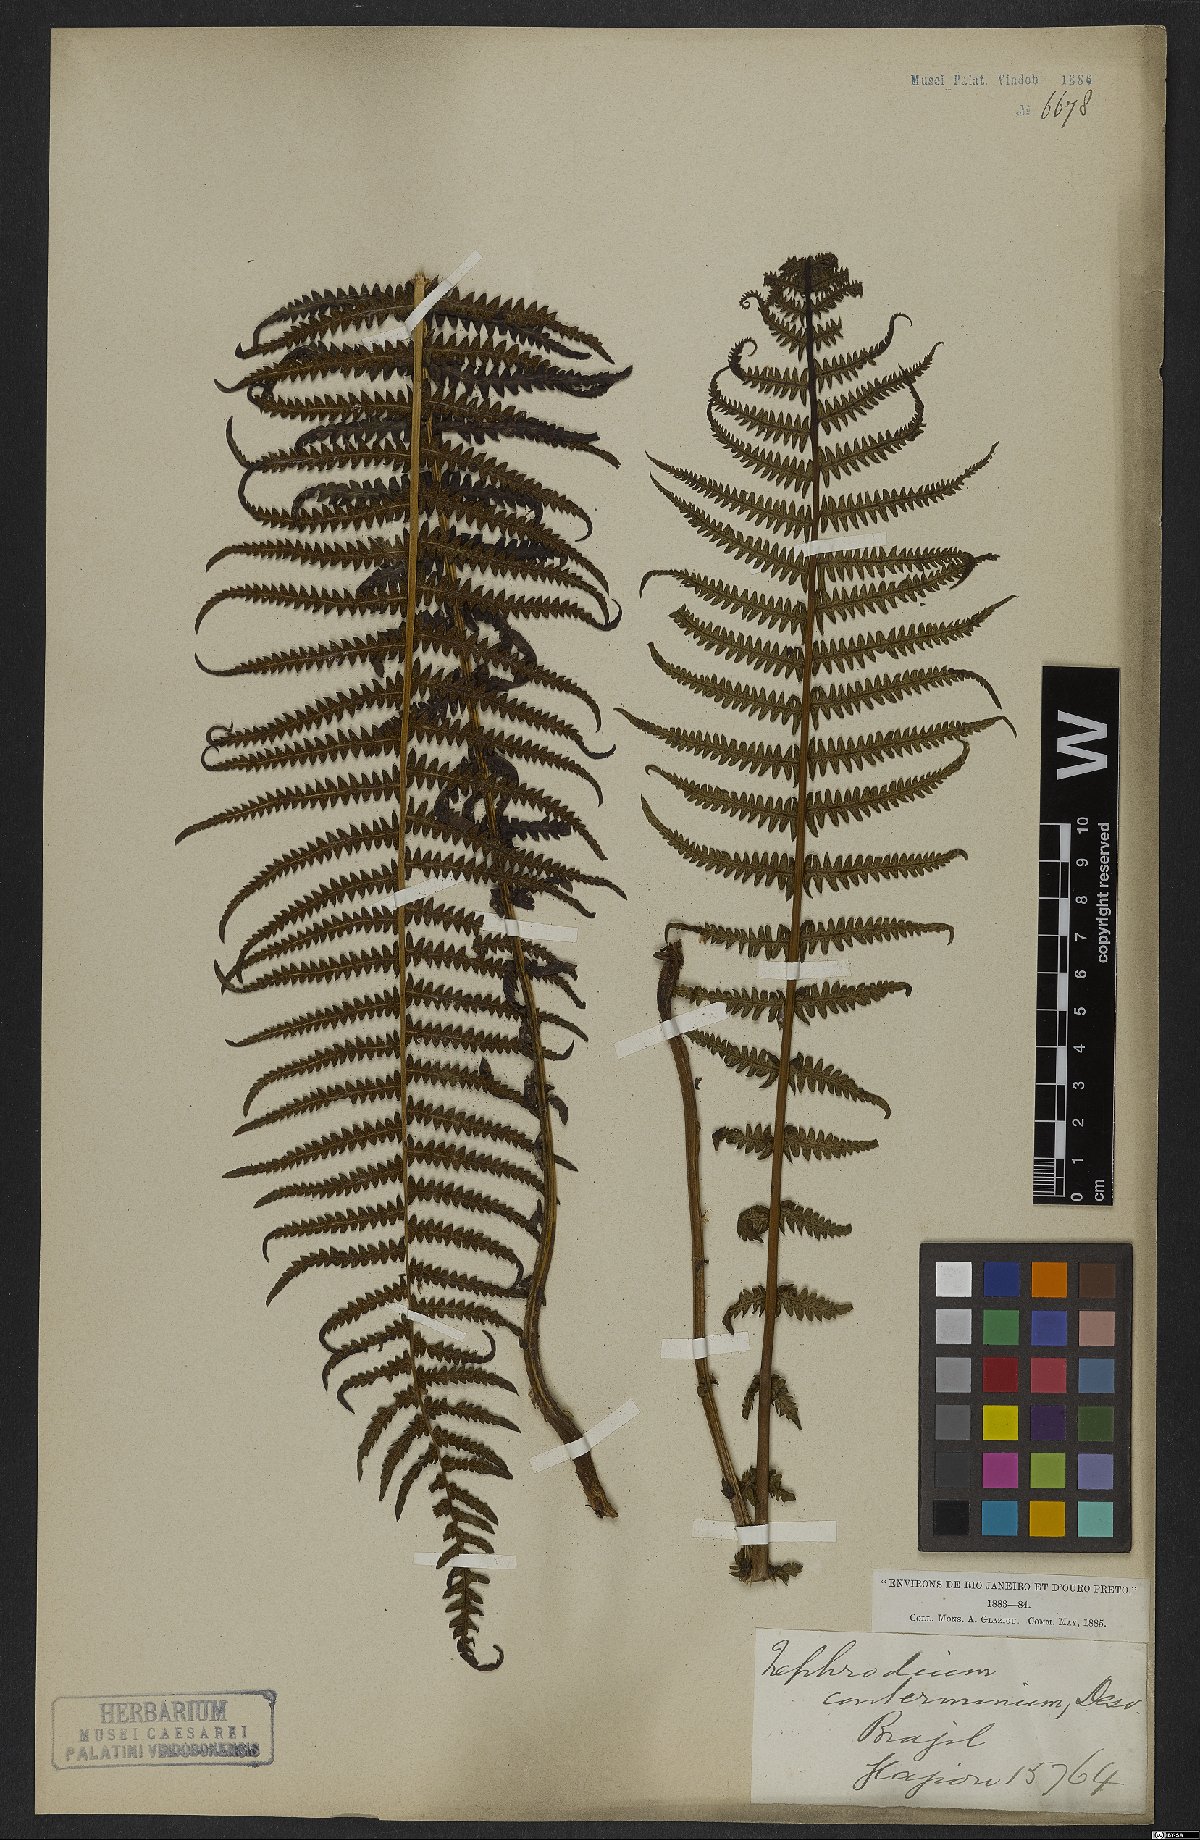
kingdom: Plantae
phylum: Tracheophyta
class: Polypodiopsida
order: Polypodiales
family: Thelypteridaceae
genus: Amauropelta
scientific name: Amauropelta opposita
